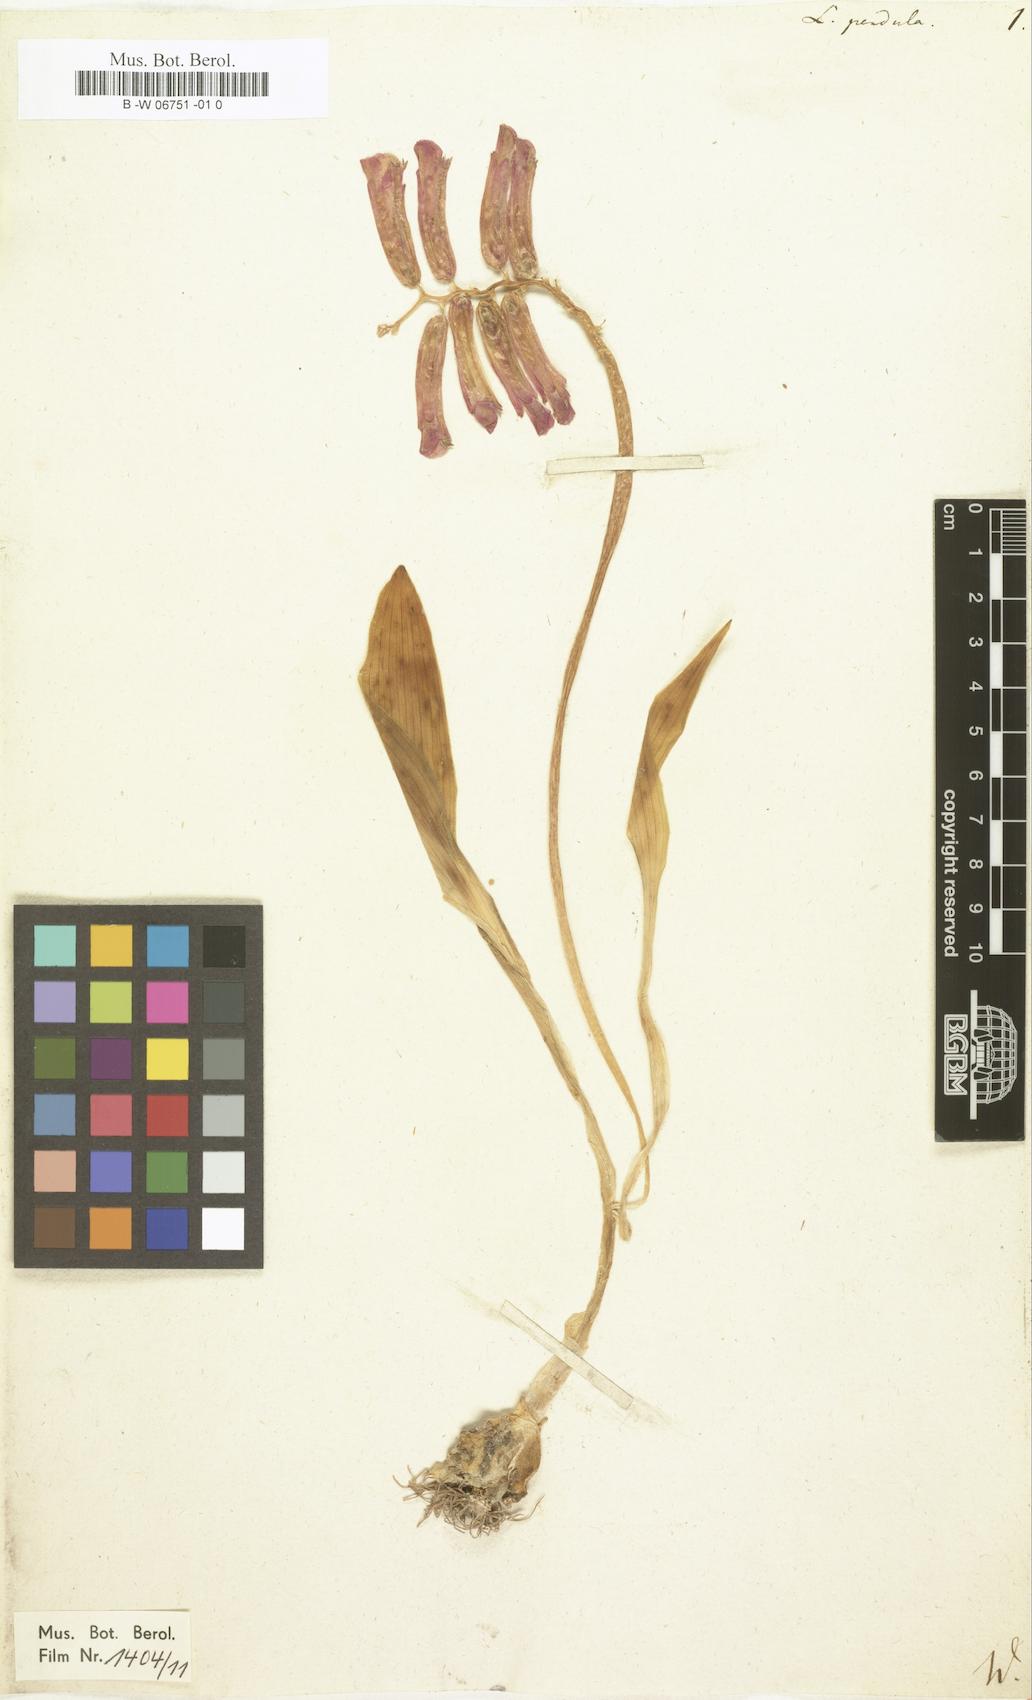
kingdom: Plantae
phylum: Tracheophyta
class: Liliopsida
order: Asparagales
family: Asparagaceae
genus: Lachenalia
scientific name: Lachenalia bulbifera
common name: Red lachenalia
